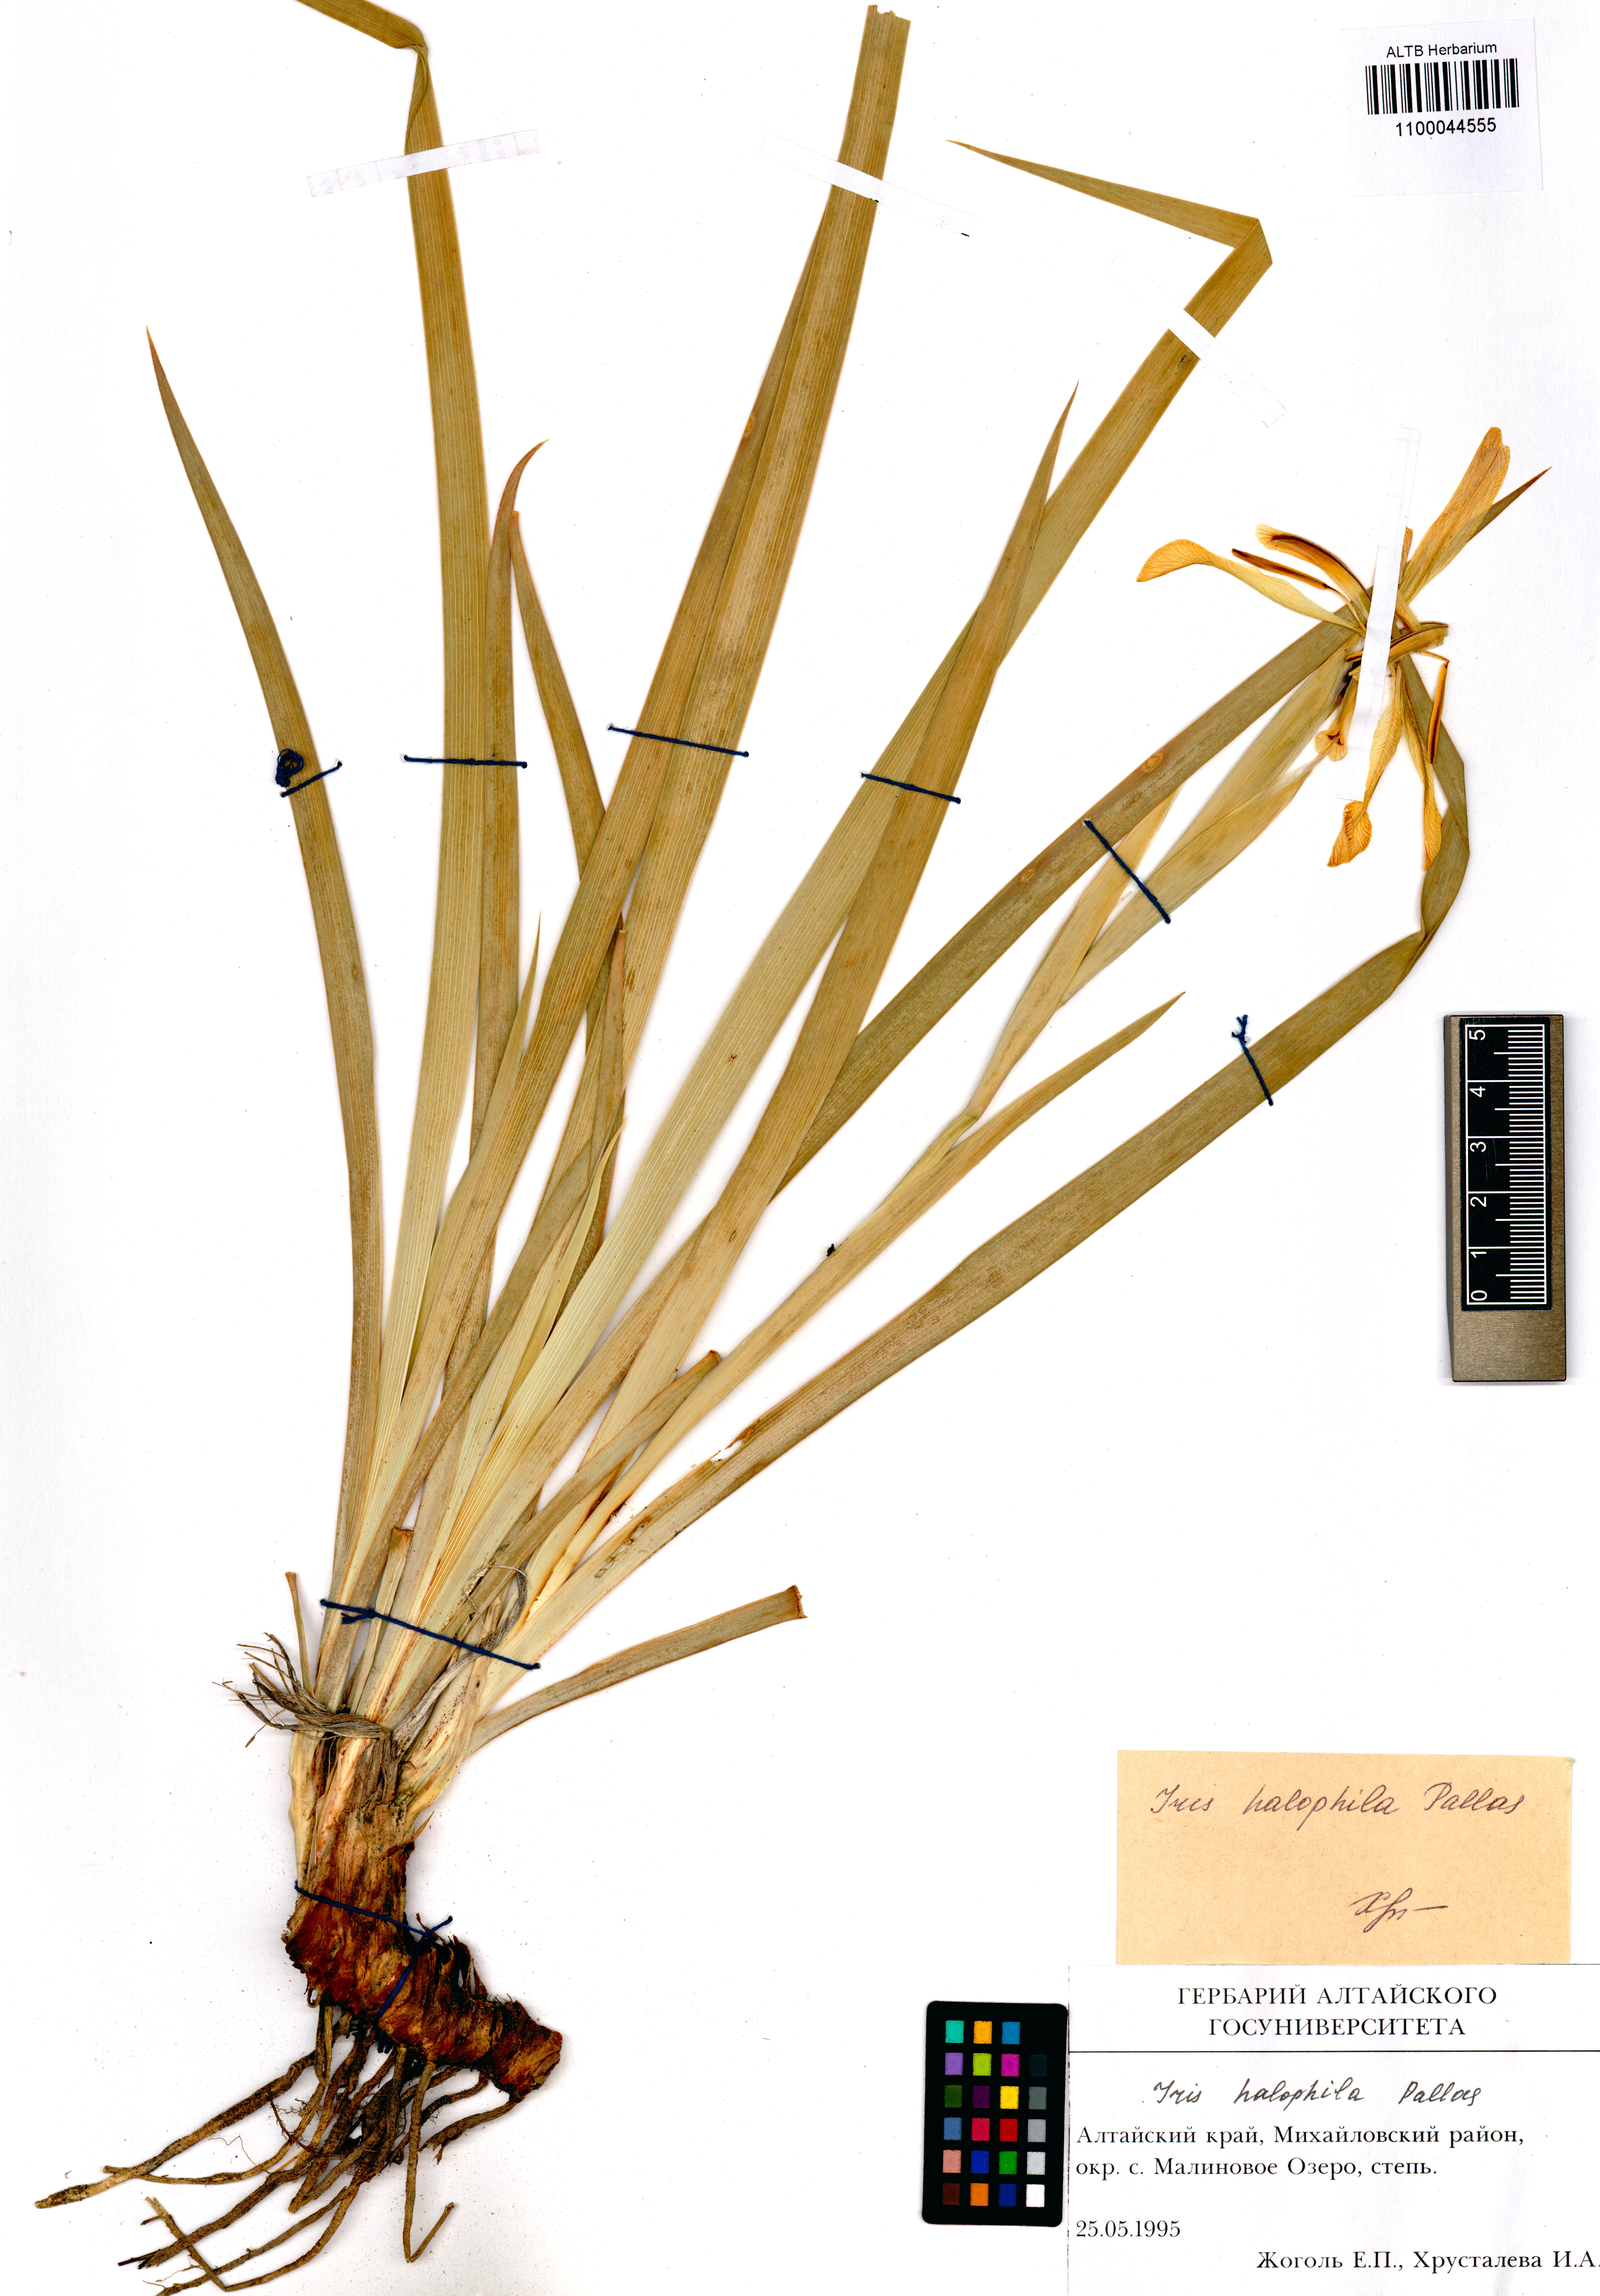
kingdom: Plantae
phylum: Tracheophyta
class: Liliopsida
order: Asparagales
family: Iridaceae
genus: Iris
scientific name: Iris halophila
